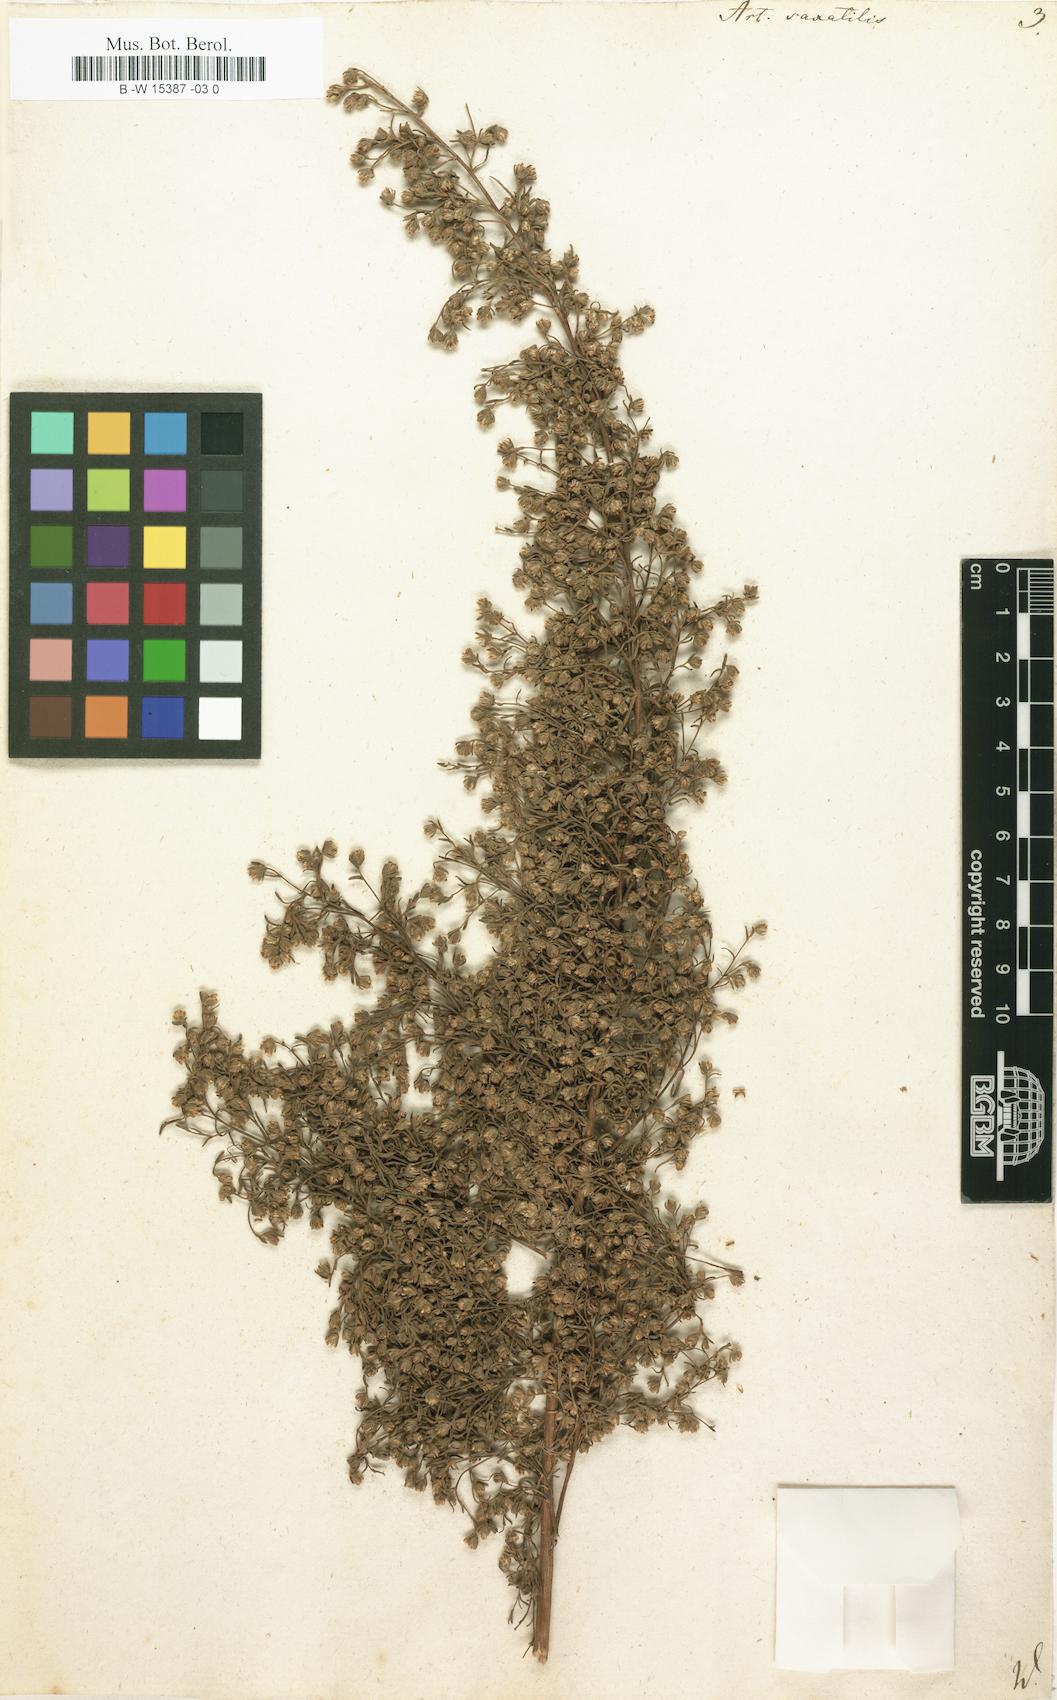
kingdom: Plantae
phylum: Tracheophyta
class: Magnoliopsida
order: Asterales
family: Asteraceae
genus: Artemisia
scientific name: Artemisia alba
